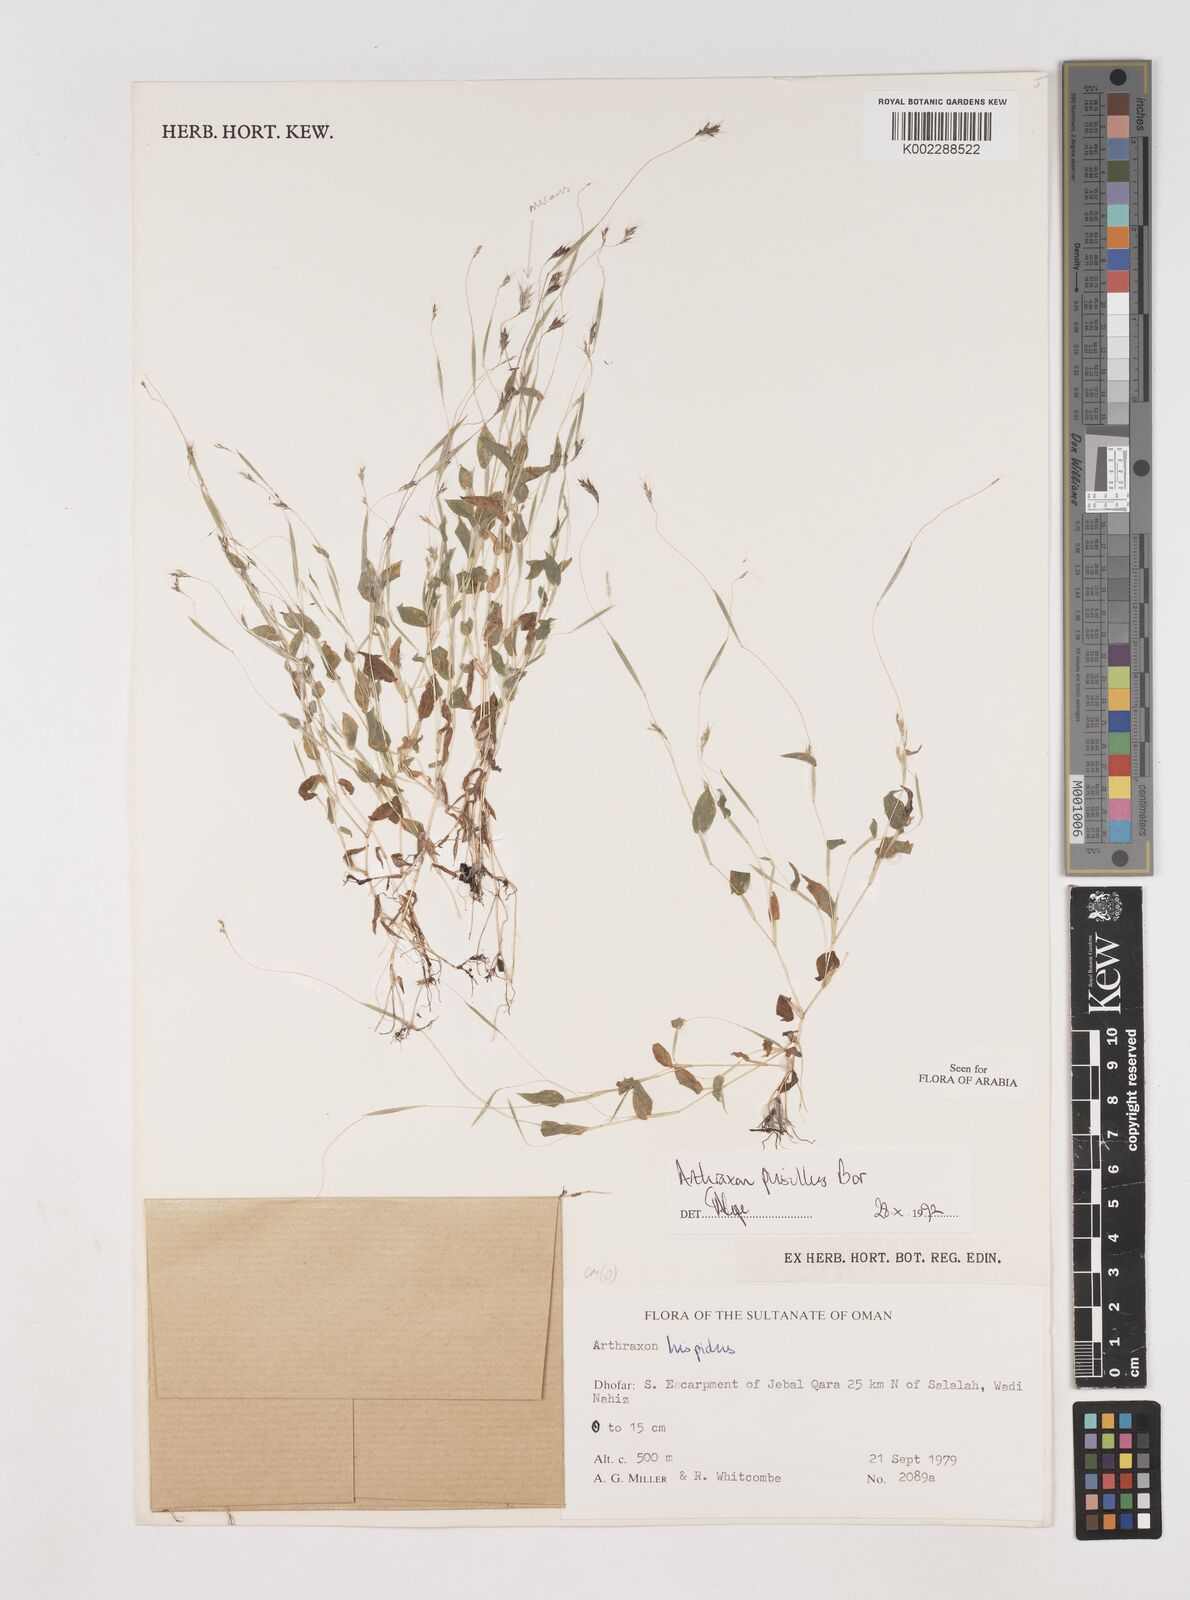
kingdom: Plantae
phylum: Tracheophyta
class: Liliopsida
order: Poales
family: Poaceae
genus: Arthraxon
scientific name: Arthraxon junnarensis
